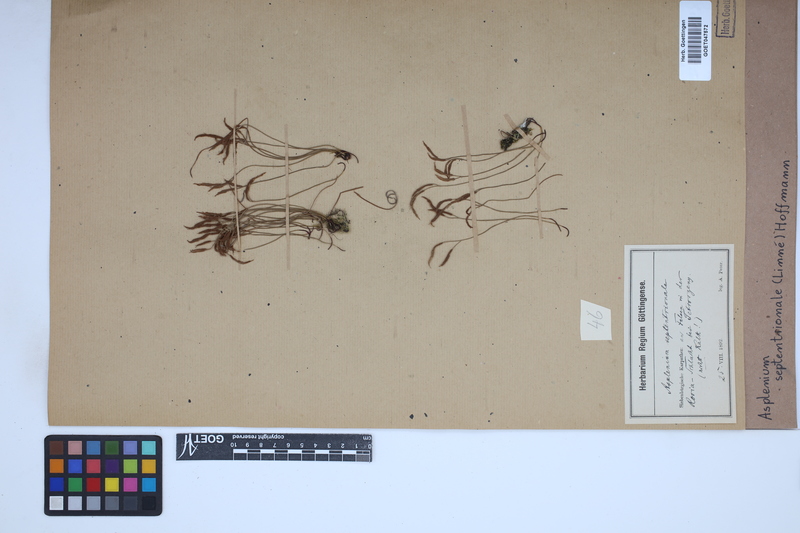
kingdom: Plantae
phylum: Tracheophyta
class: Polypodiopsida
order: Polypodiales
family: Aspleniaceae
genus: Asplenium
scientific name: Asplenium septentrionale
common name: Forked spleenwort
